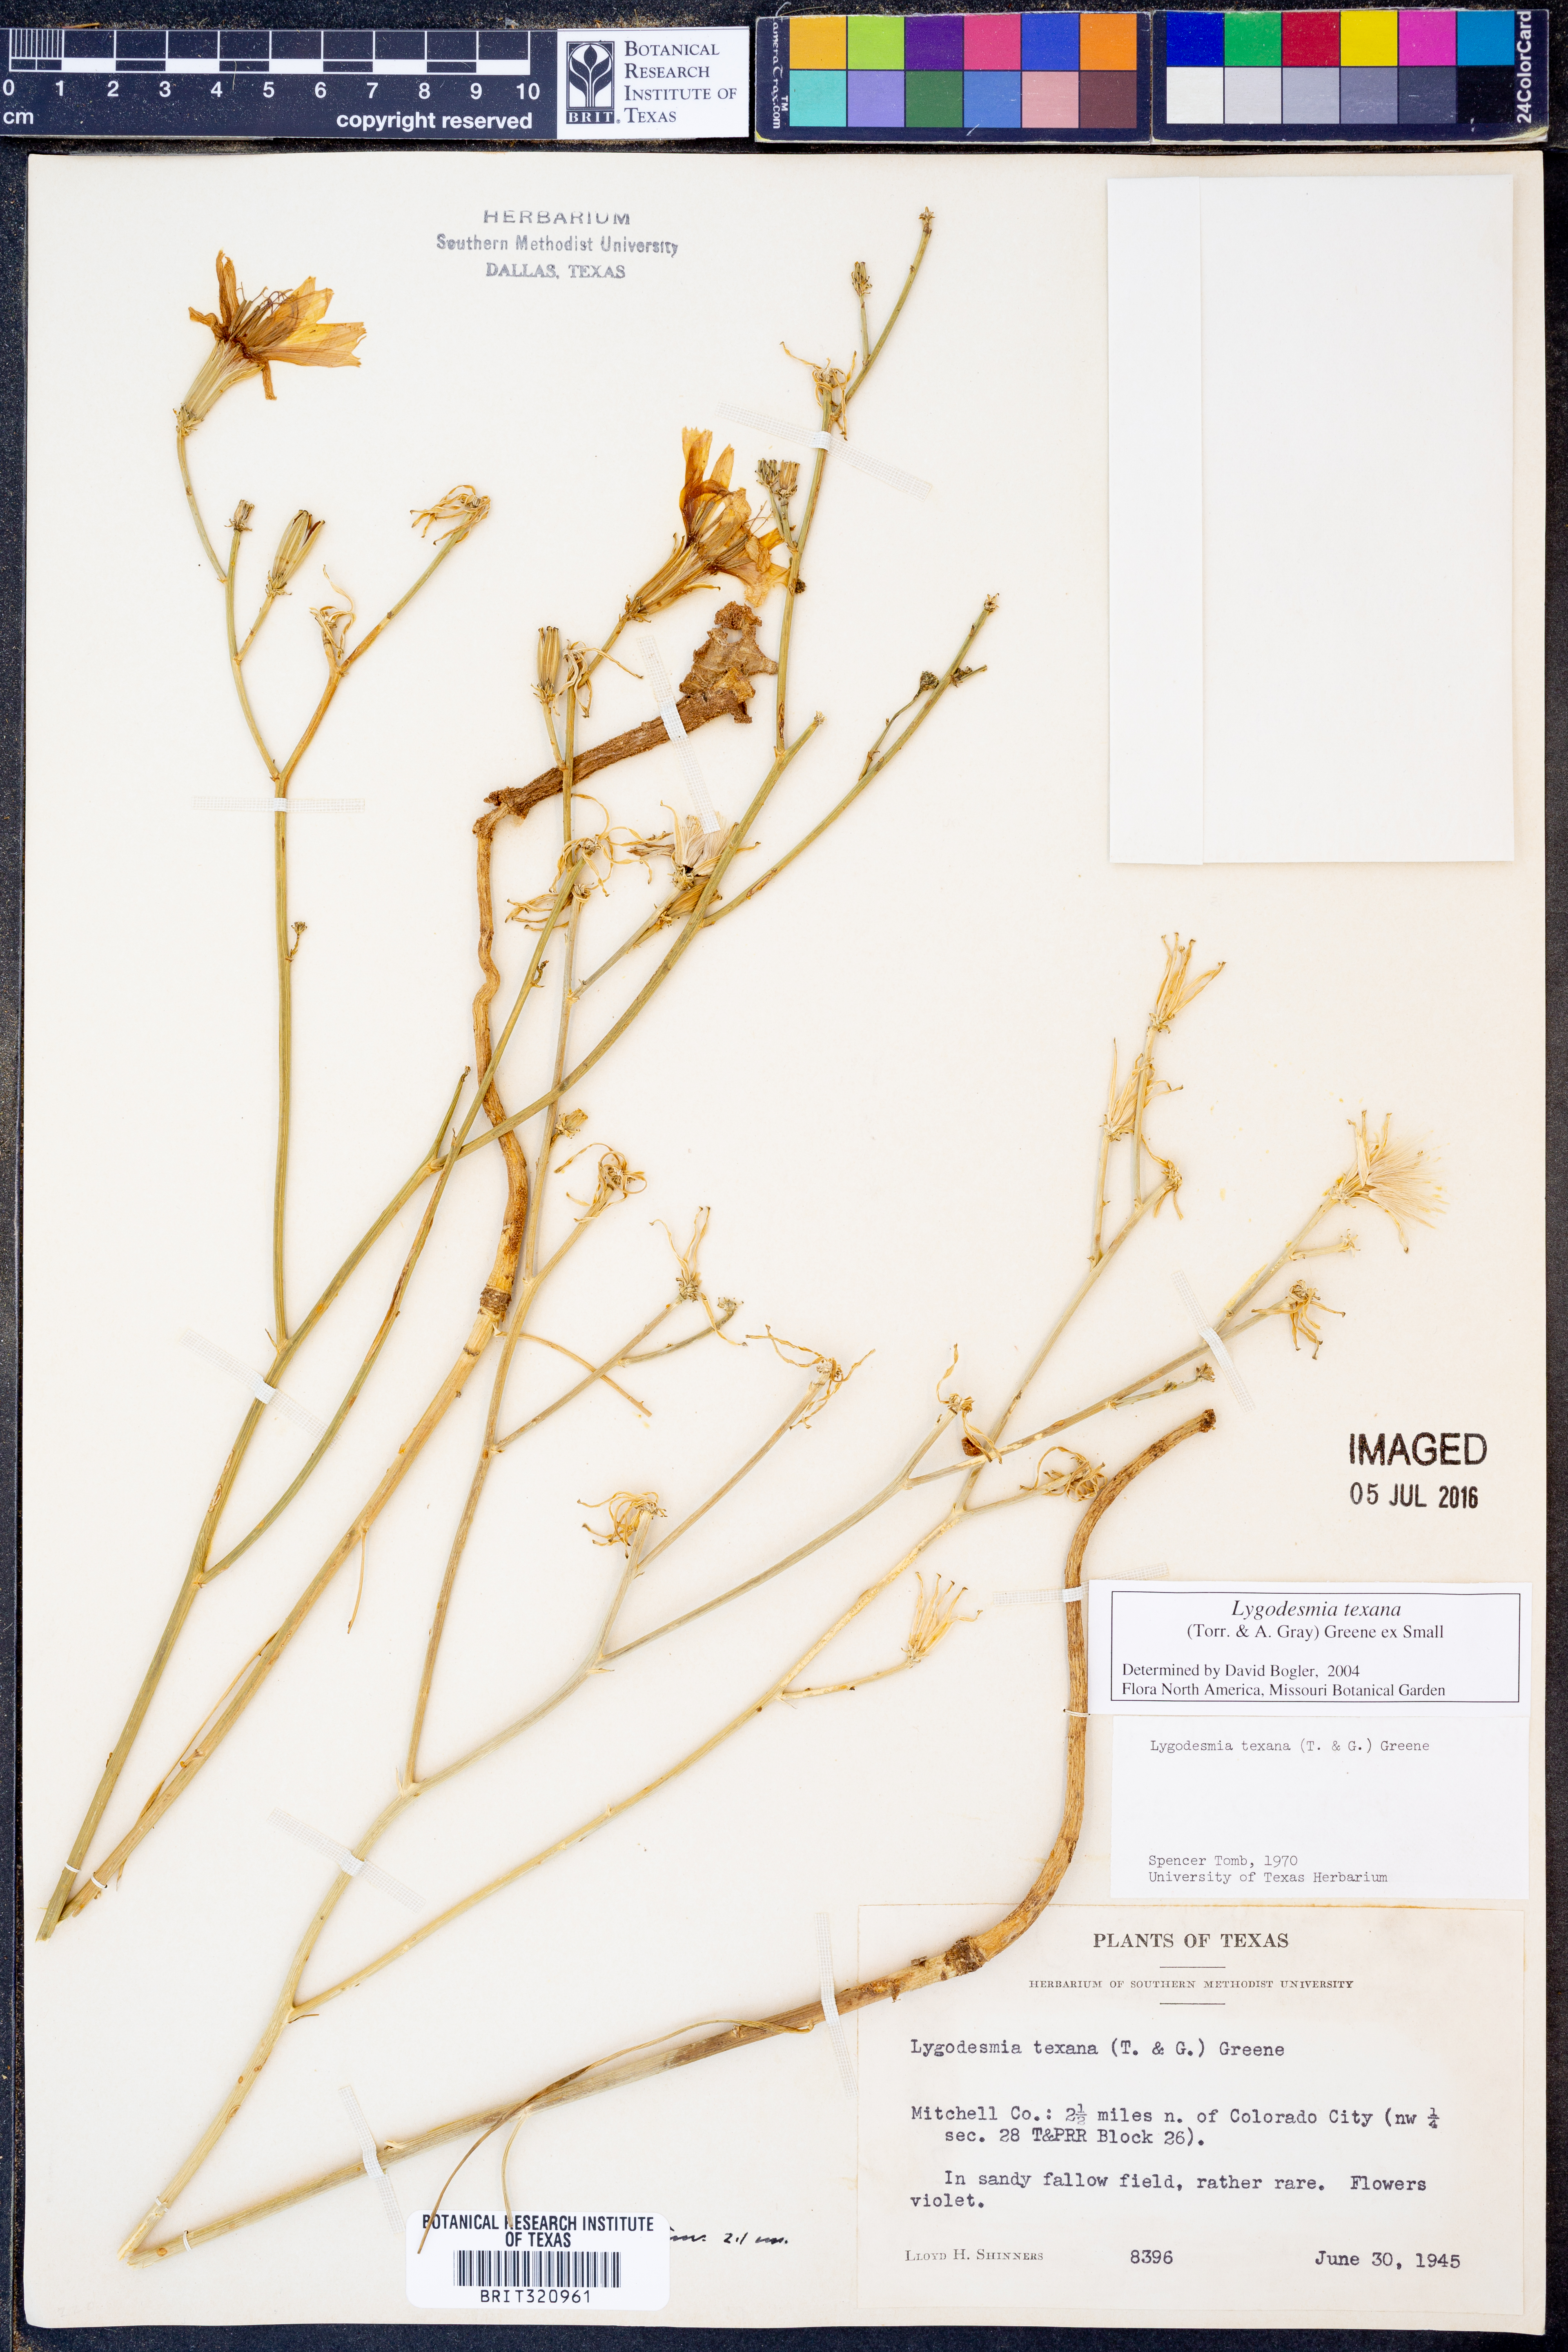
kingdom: Plantae
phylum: Tracheophyta
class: Magnoliopsida
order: Asterales
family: Asteraceae
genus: Lygodesmia
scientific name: Lygodesmia texana
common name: Texas skeleton-plant
